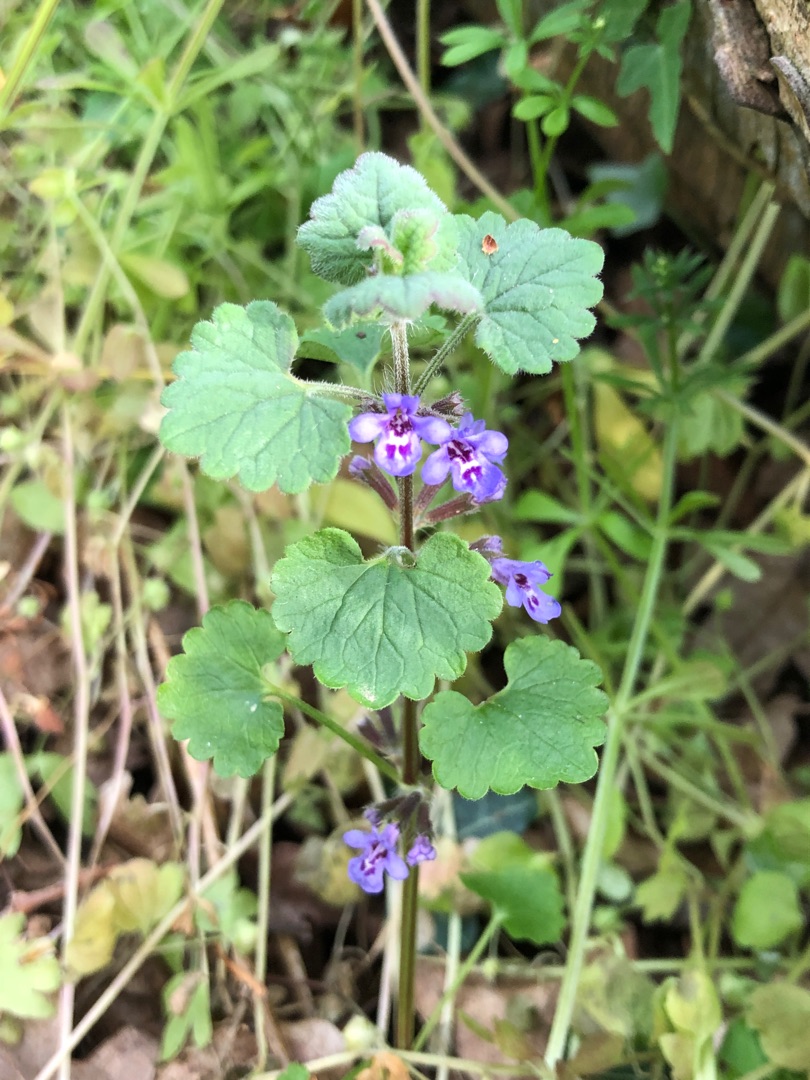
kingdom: Plantae
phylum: Tracheophyta
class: Magnoliopsida
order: Lamiales
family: Lamiaceae
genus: Glechoma
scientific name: Glechoma hederacea
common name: Korsknap
